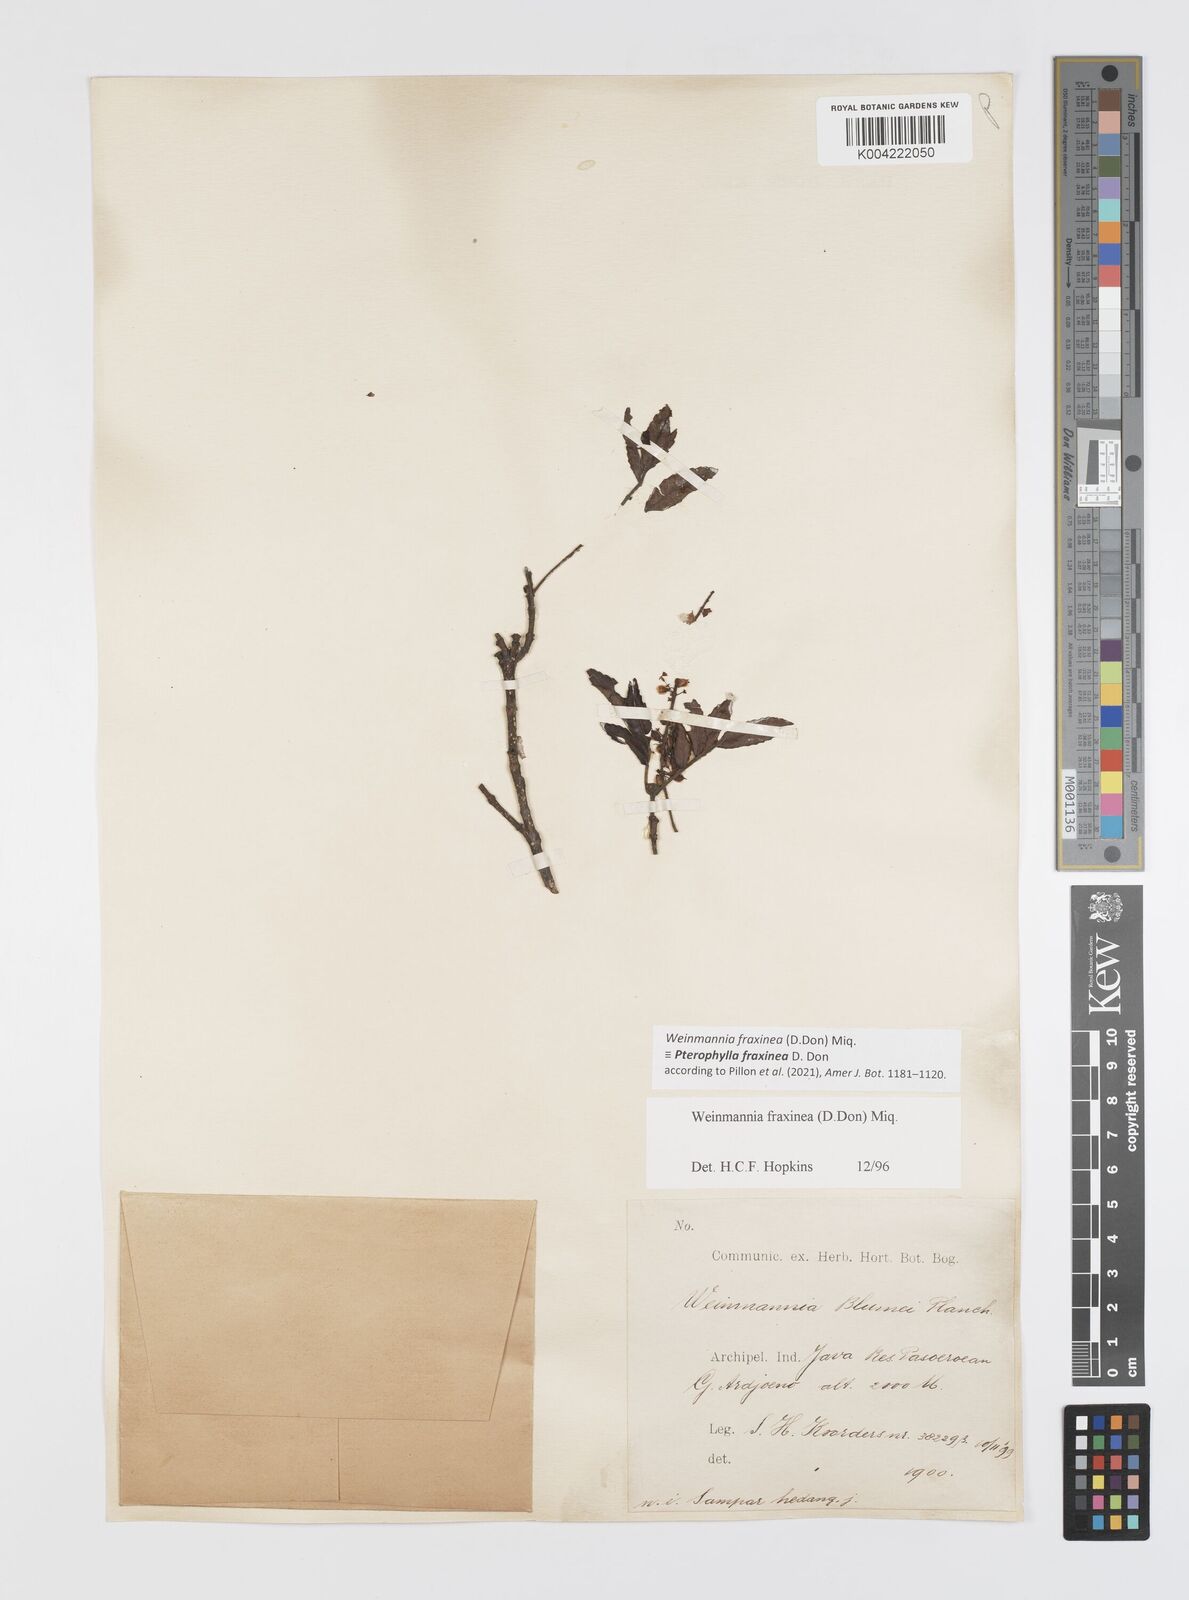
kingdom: Plantae
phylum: Tracheophyta
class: Magnoliopsida
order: Oxalidales
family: Cunoniaceae
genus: Pterophylla
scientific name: Pterophylla fraxinea
